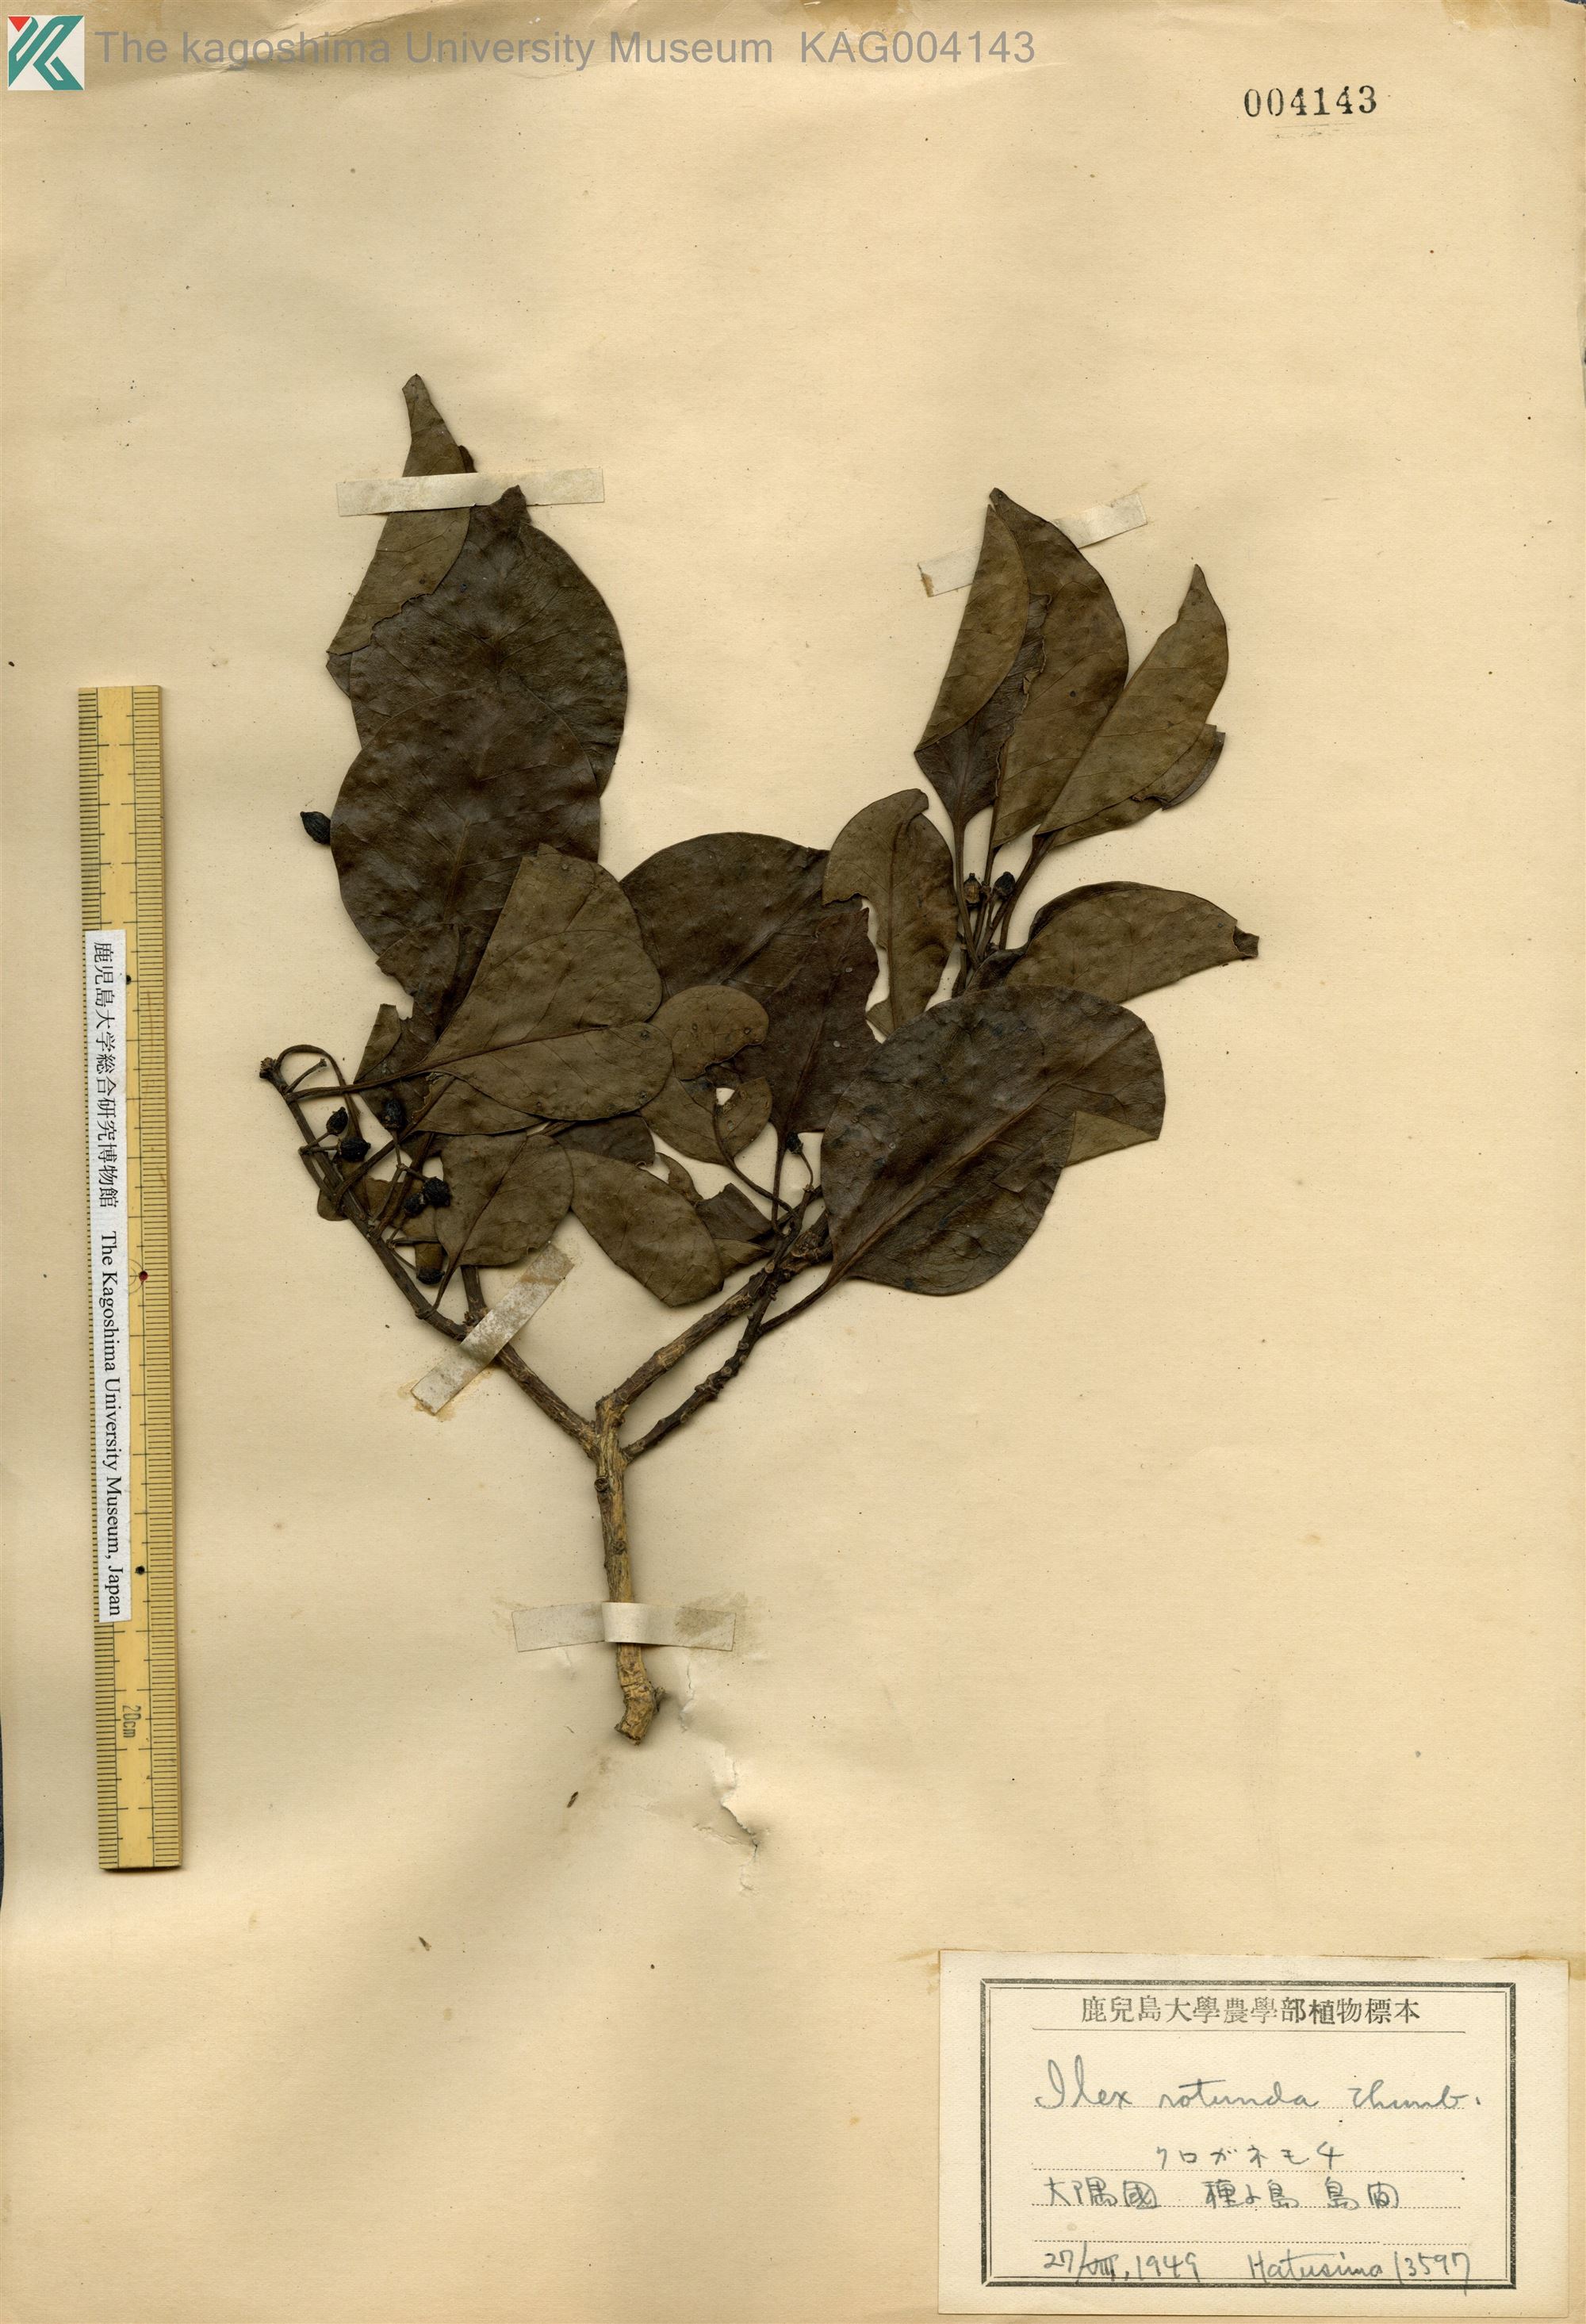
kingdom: Plantae
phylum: Tracheophyta
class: Magnoliopsida
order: Aquifoliales
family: Aquifoliaceae
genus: Ilex
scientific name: Ilex rotunda
